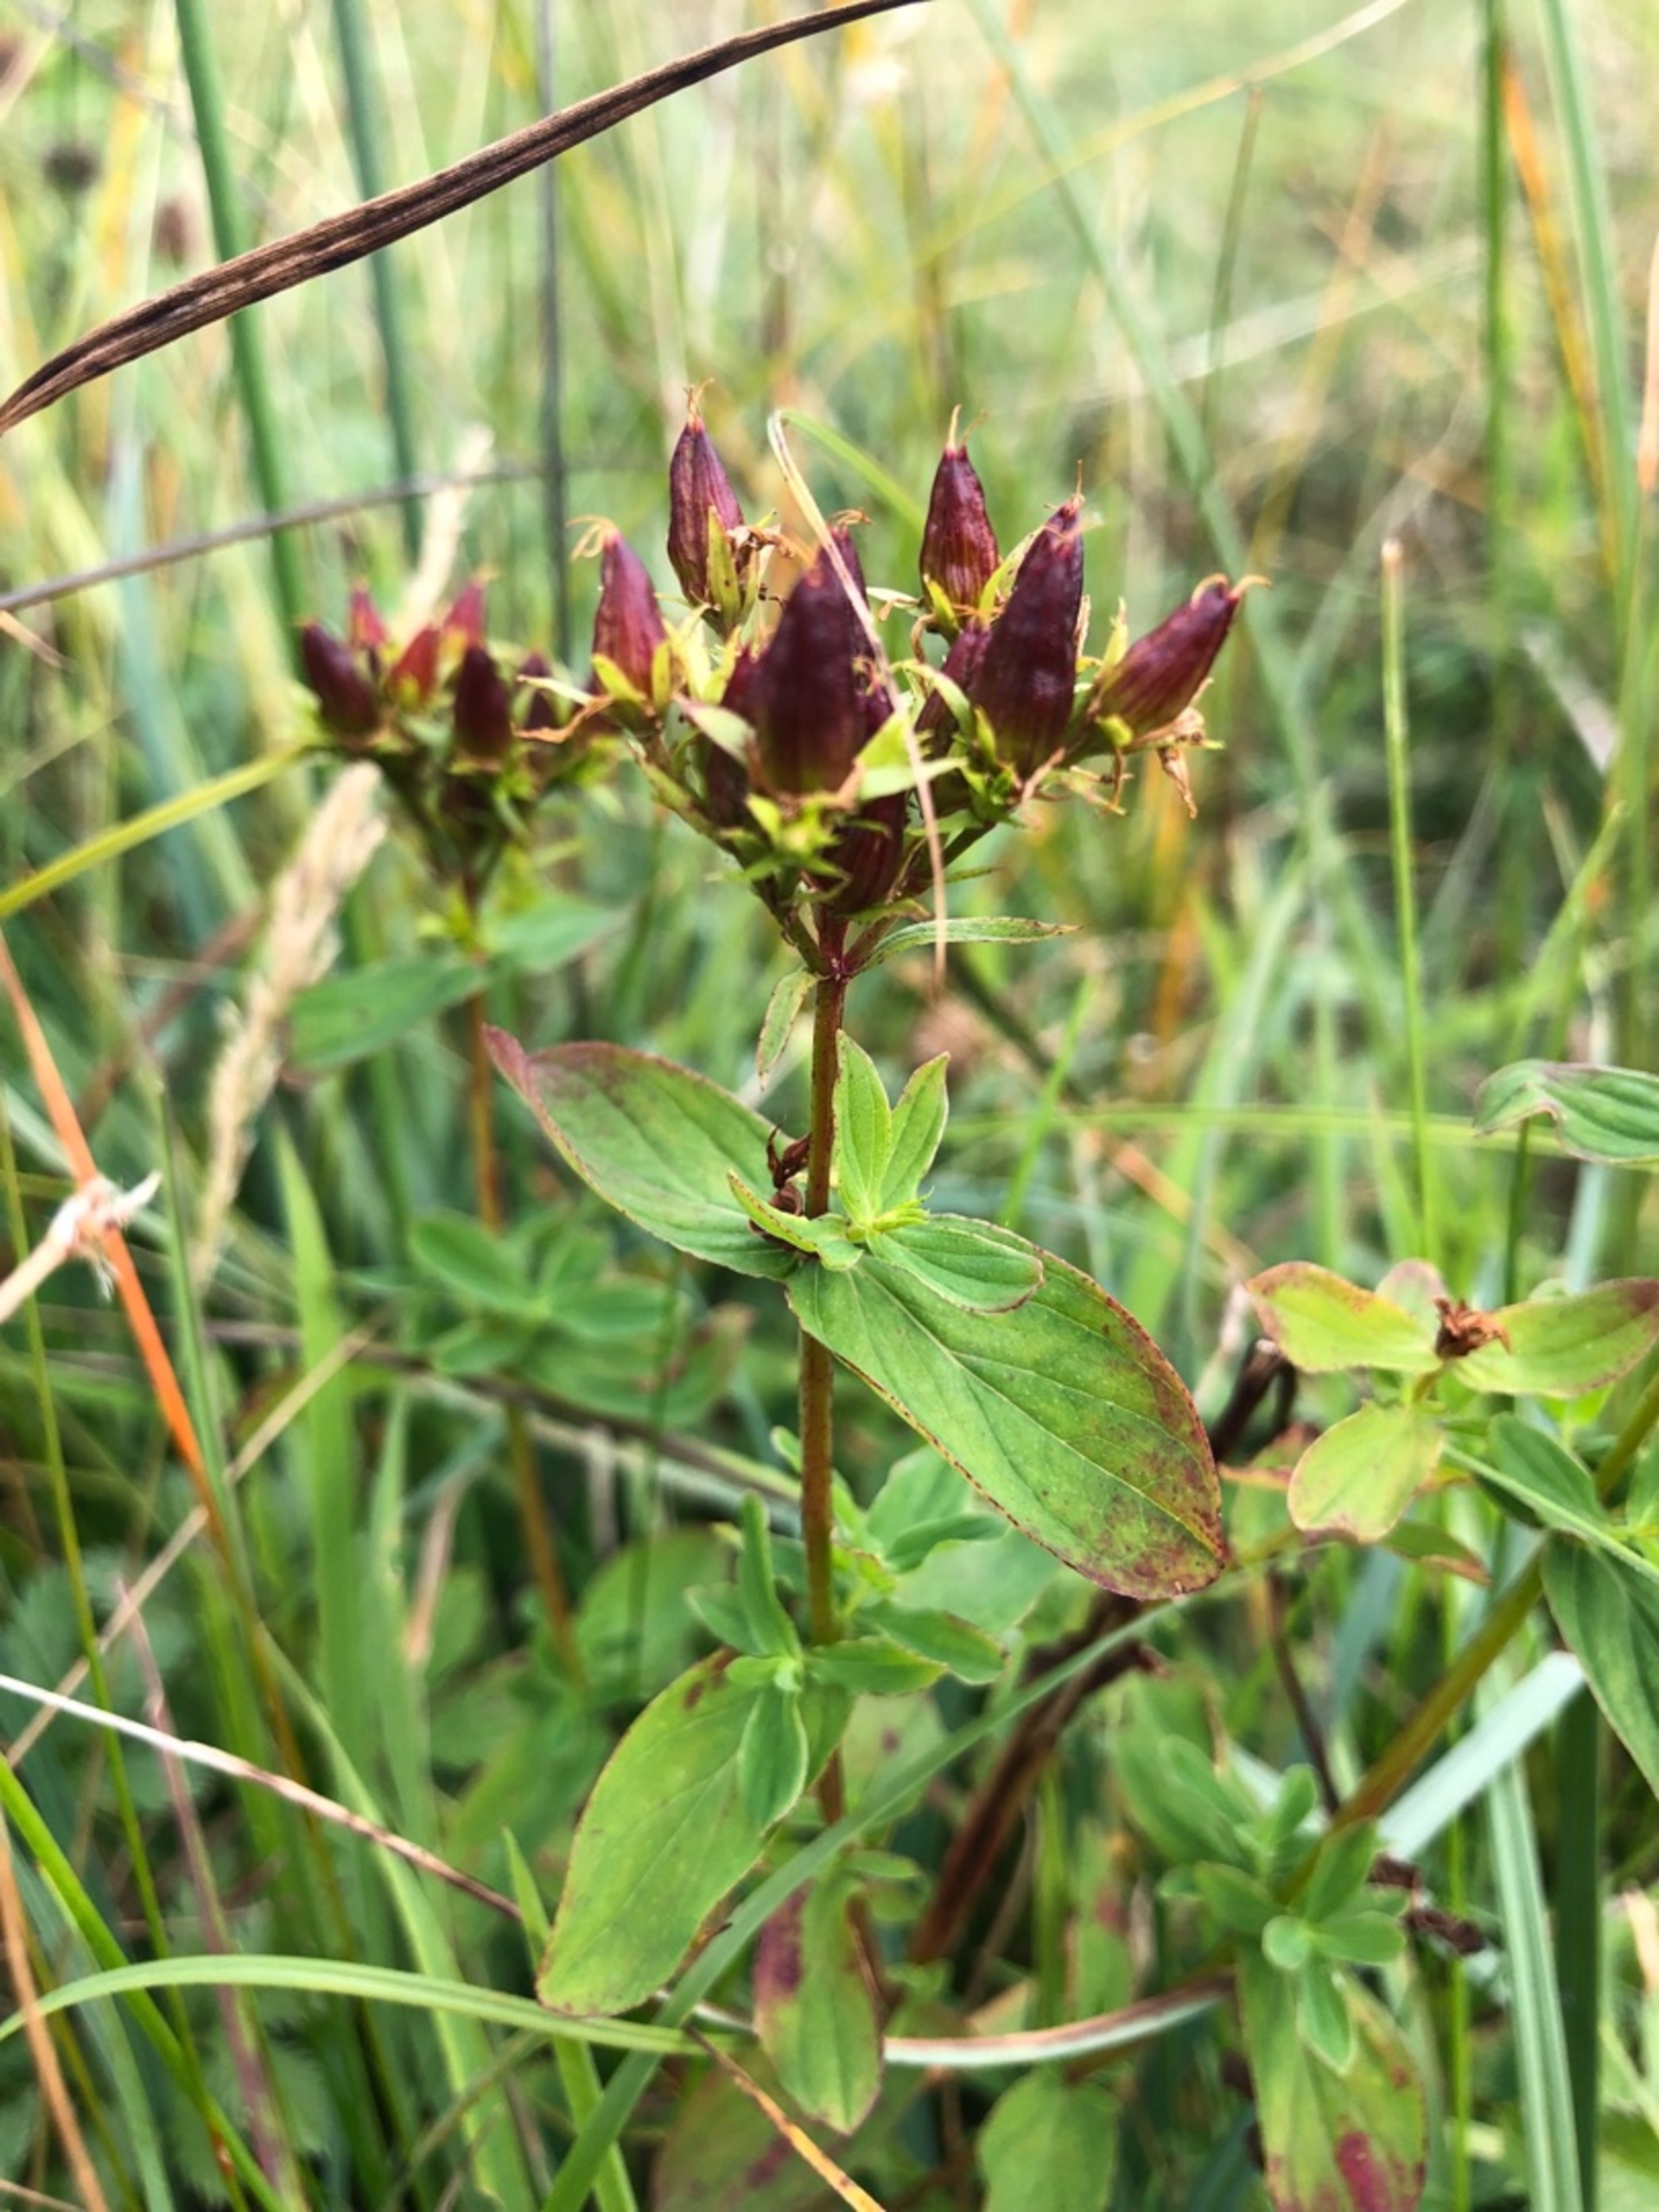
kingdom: Plantae
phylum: Tracheophyta
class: Magnoliopsida
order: Malpighiales
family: Hypericaceae
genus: Hypericum
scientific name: Hypericum tetrapterum
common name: Vinget perikon
